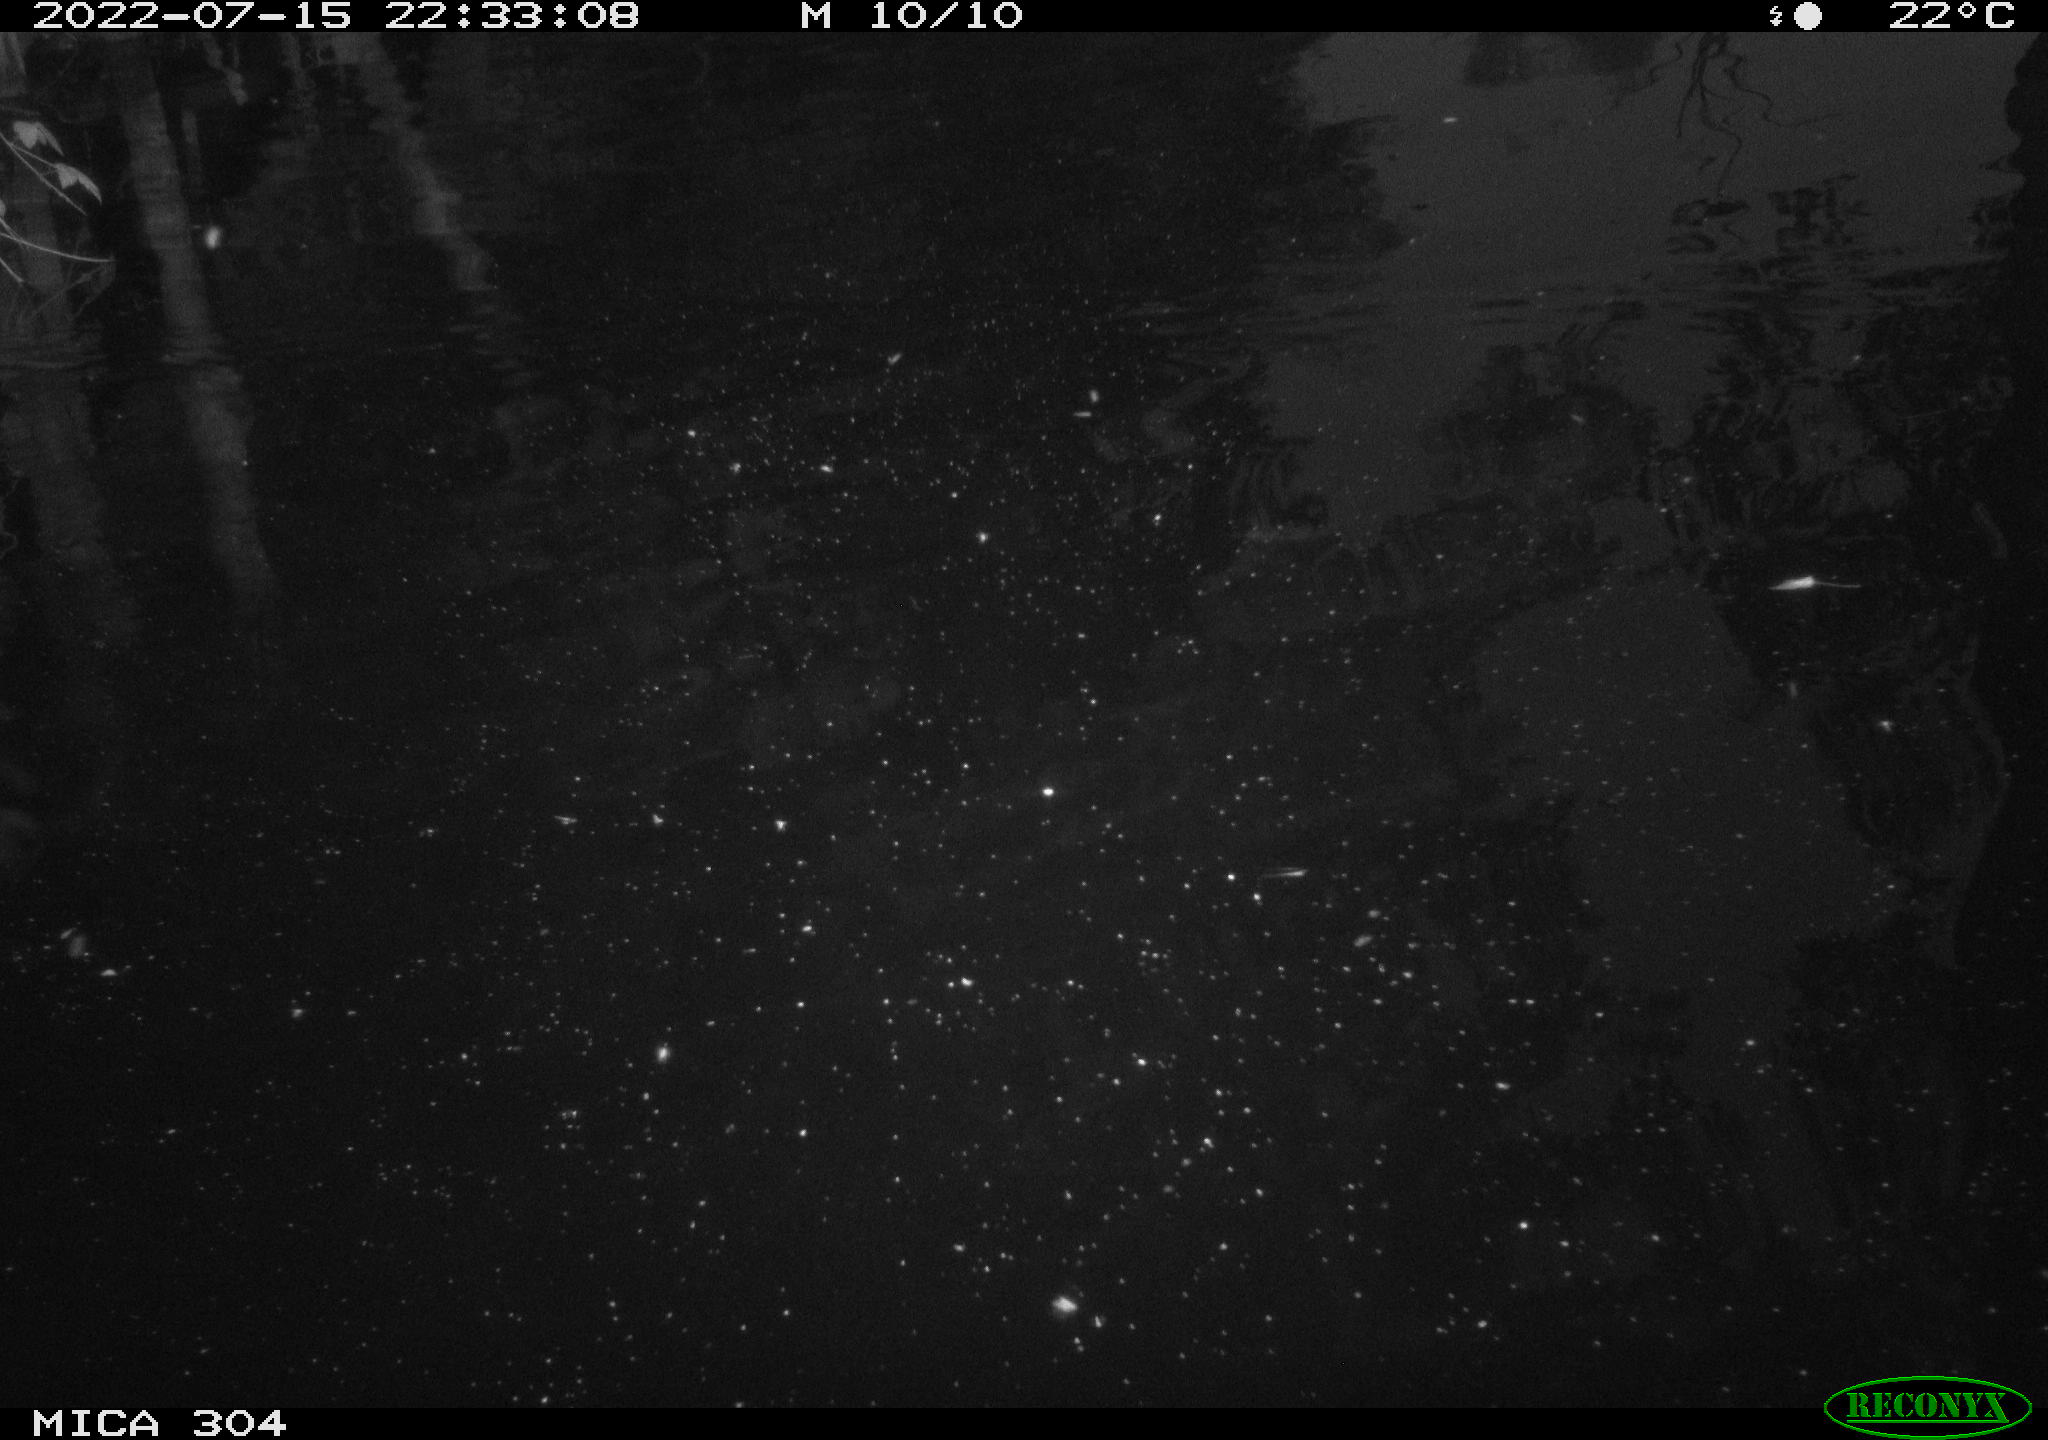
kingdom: Animalia
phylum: Chordata
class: Mammalia
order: Rodentia
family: Muridae
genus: Rattus
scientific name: Rattus norvegicus
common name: Brown rat
